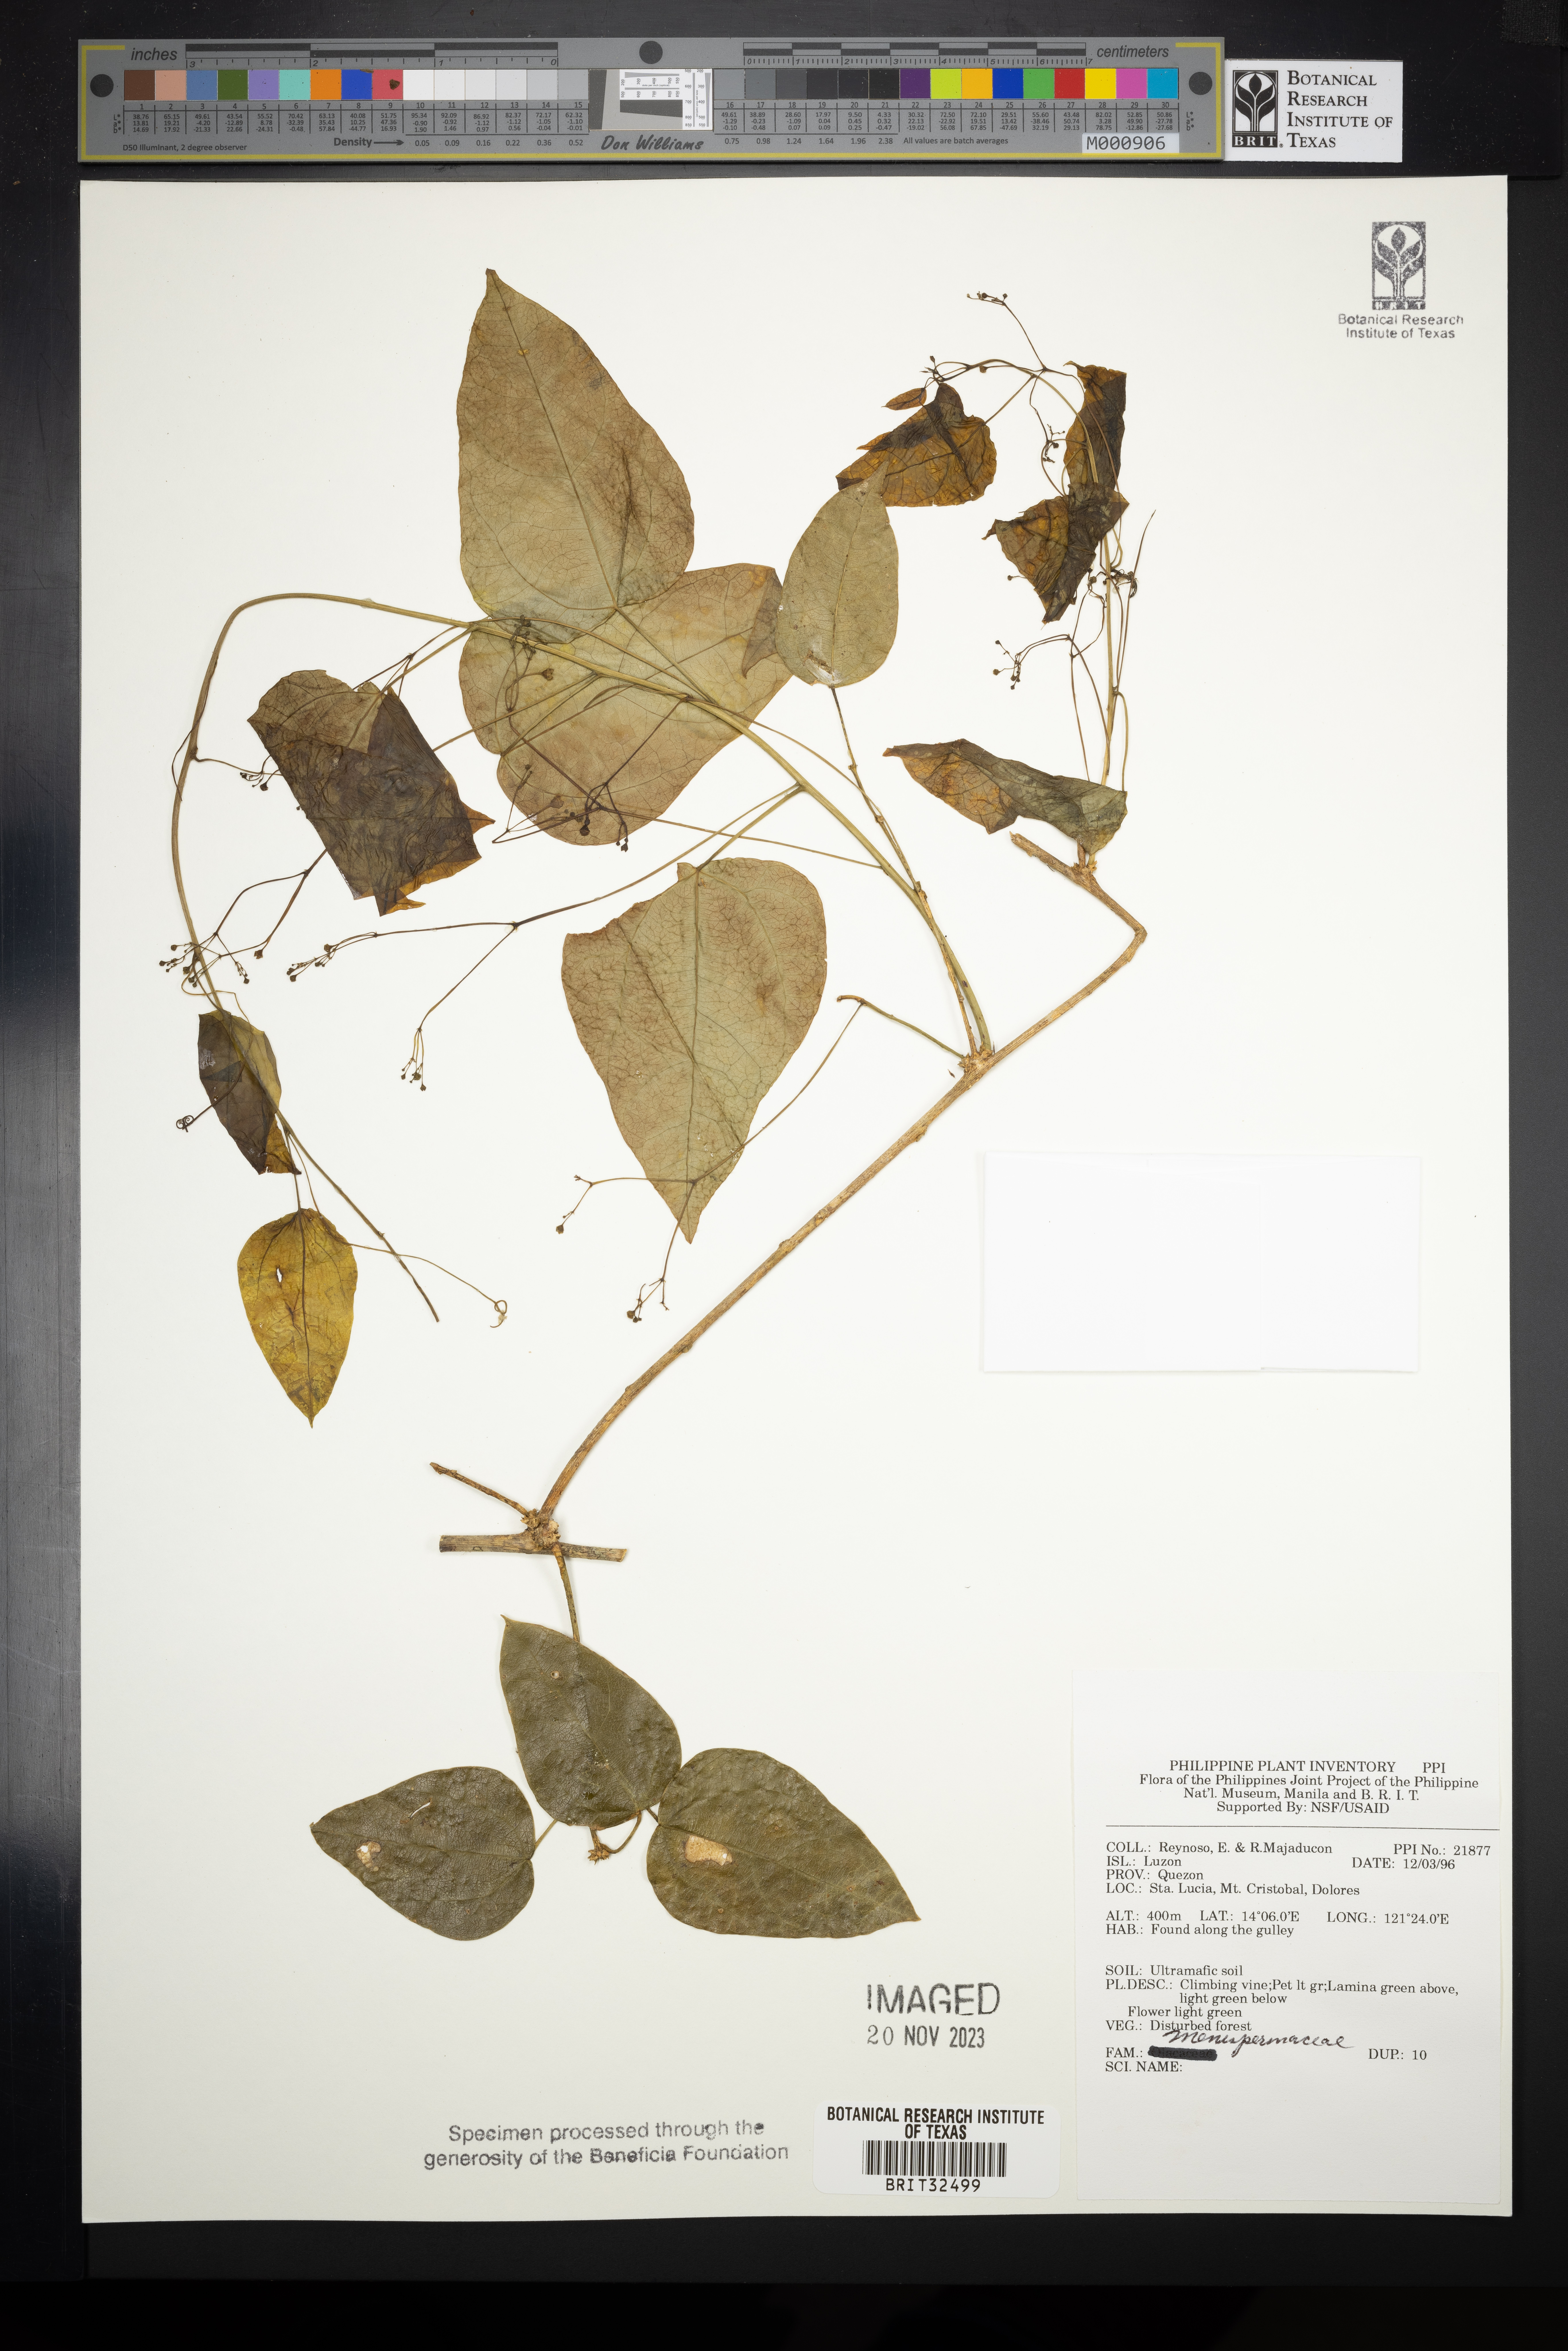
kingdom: Plantae
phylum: Tracheophyta
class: Magnoliopsida
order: Ranunculales
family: Menispermaceae
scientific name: Menispermaceae
